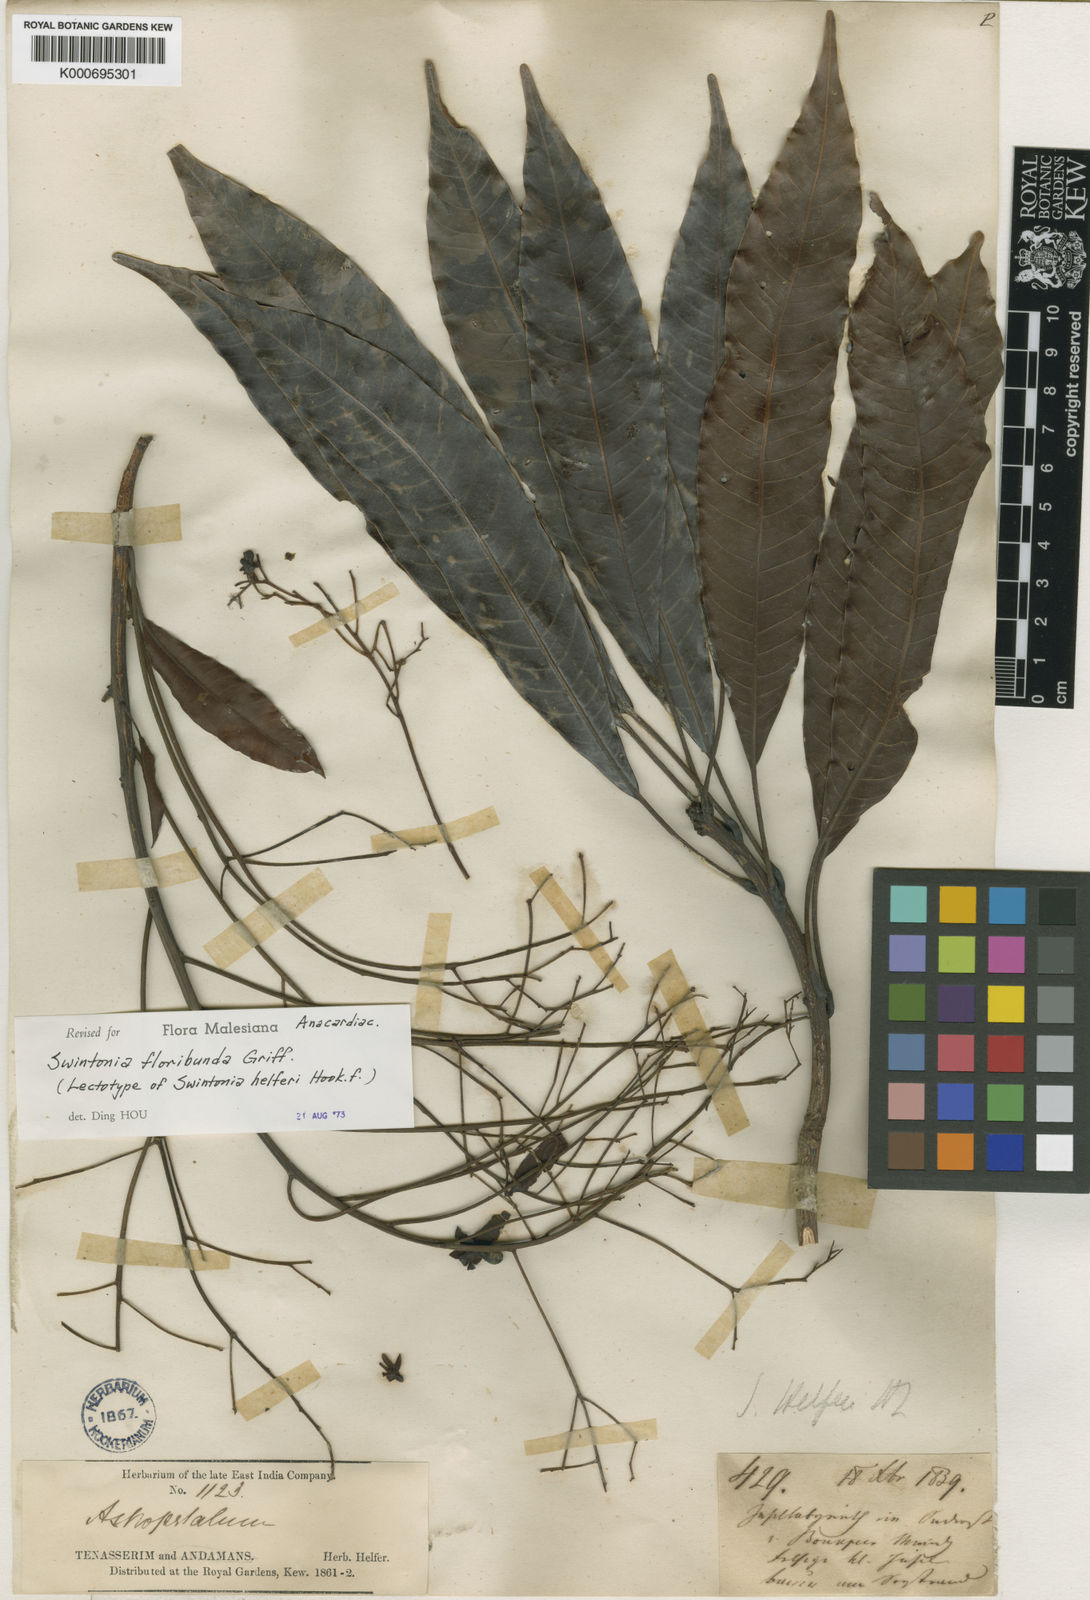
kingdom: Plantae
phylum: Tracheophyta
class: Magnoliopsida
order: Sapindales
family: Anacardiaceae
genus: Swintonia
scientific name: Swintonia floribunda
